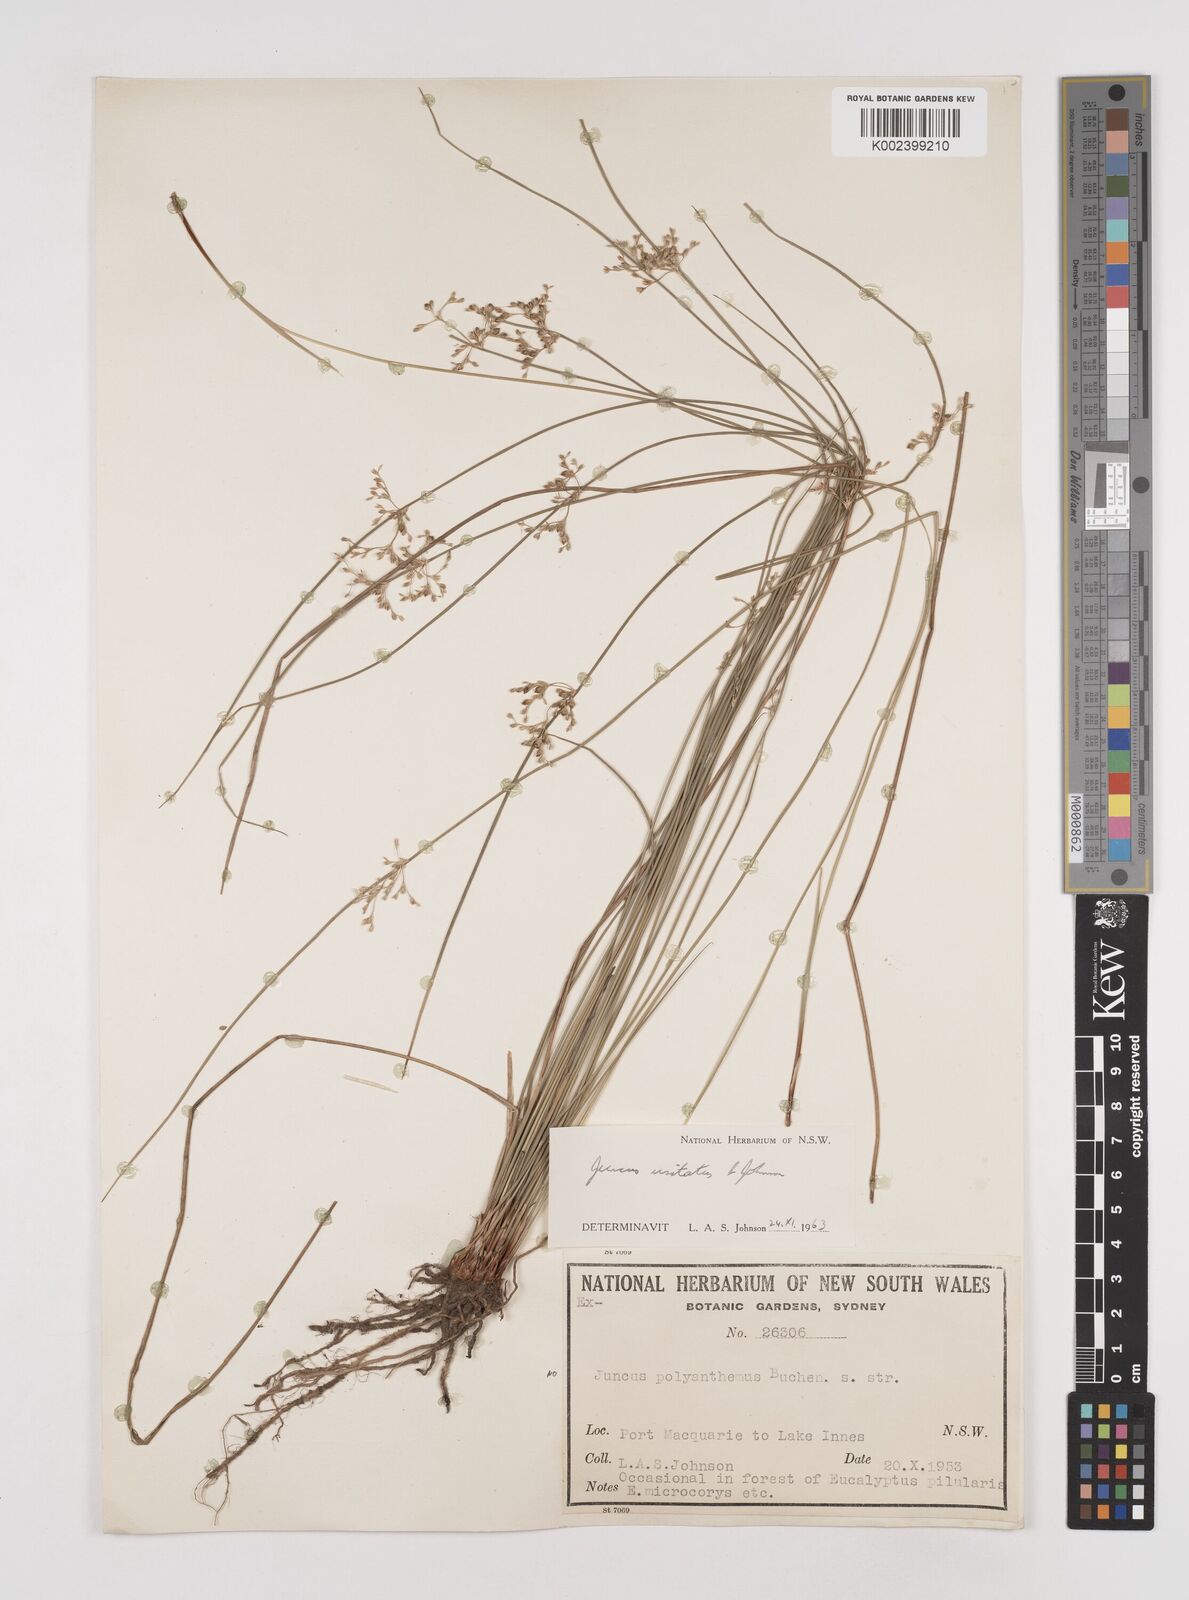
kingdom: Plantae
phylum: Tracheophyta
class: Liliopsida
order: Poales
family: Juncaceae
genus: Juncus
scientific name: Juncus usitatus
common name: Rush
